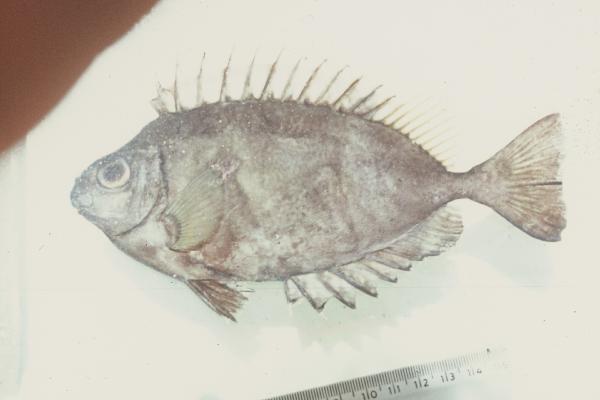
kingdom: Animalia
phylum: Chordata
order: Perciformes
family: Siganidae
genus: Siganus
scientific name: Siganus
